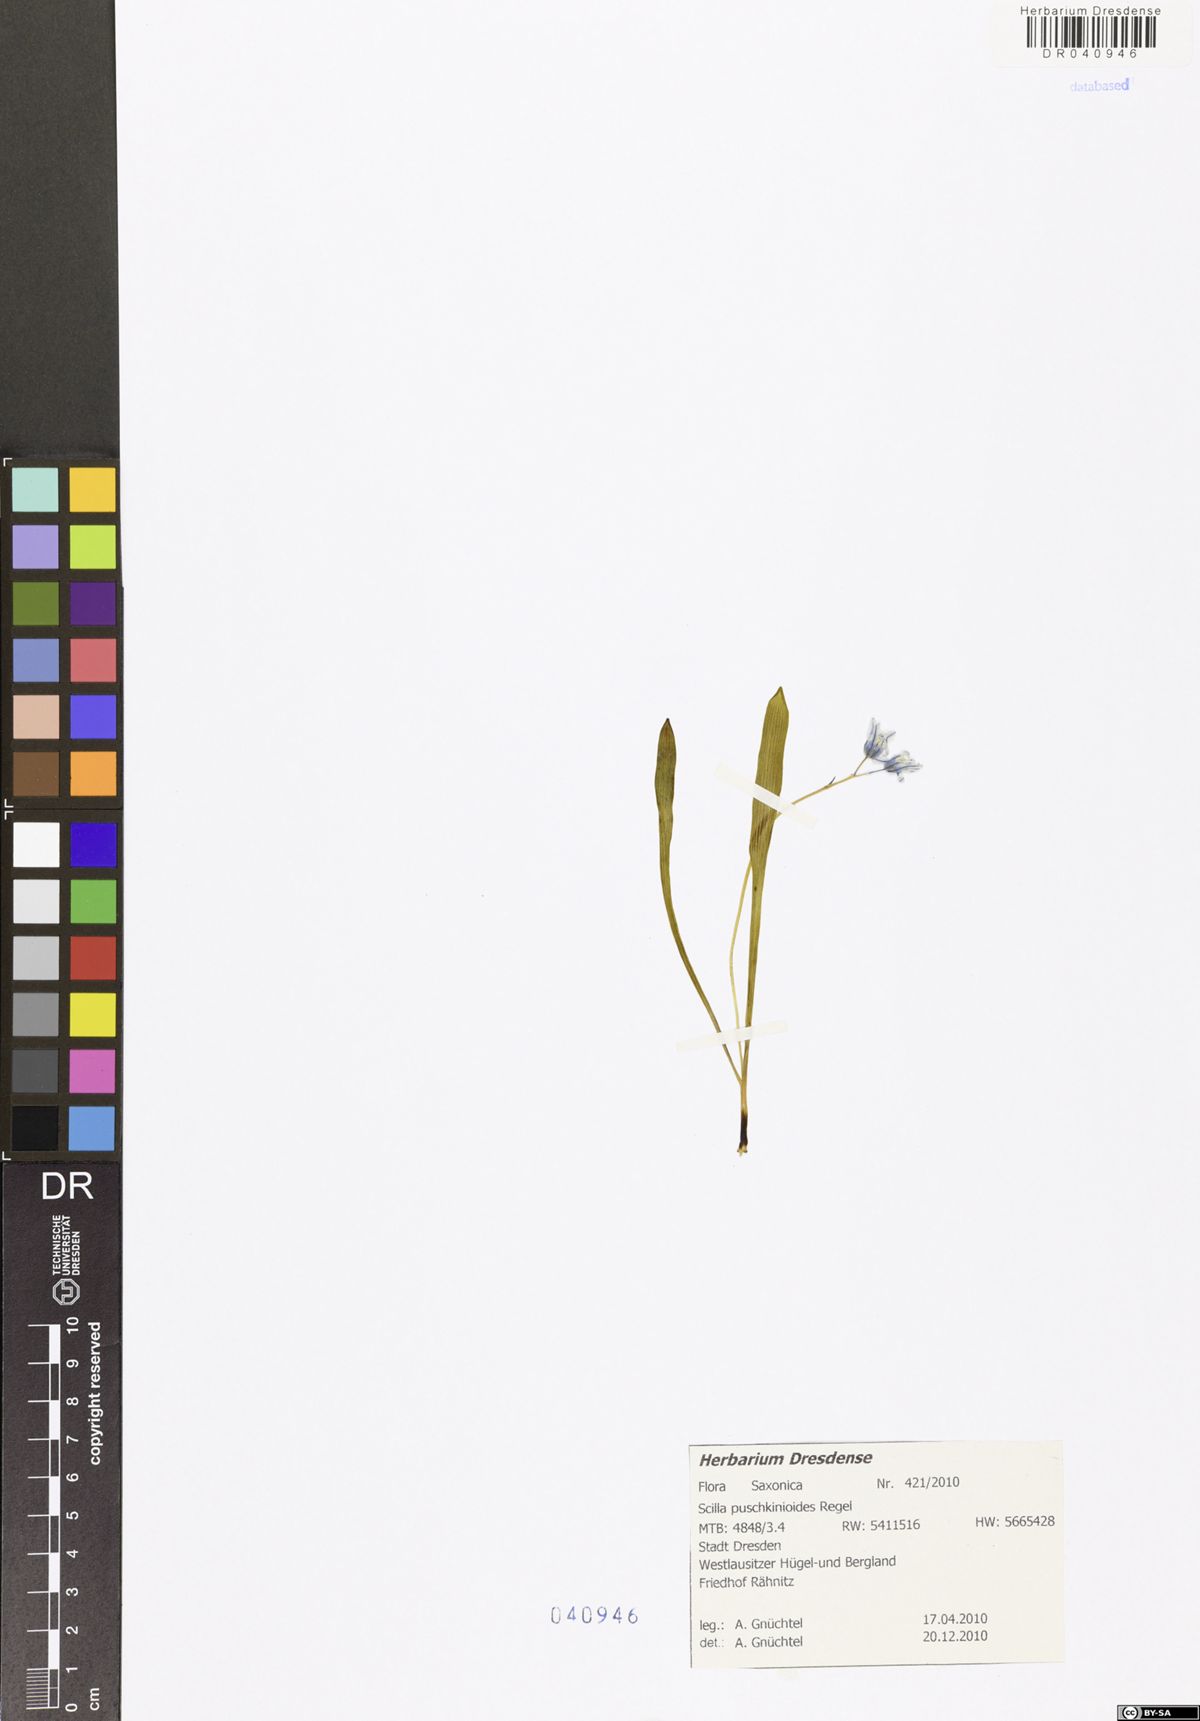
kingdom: Plantae
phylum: Tracheophyta
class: Liliopsida
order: Asparagales
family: Asparagaceae
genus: Fessia
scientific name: Fessia puschkinioides
